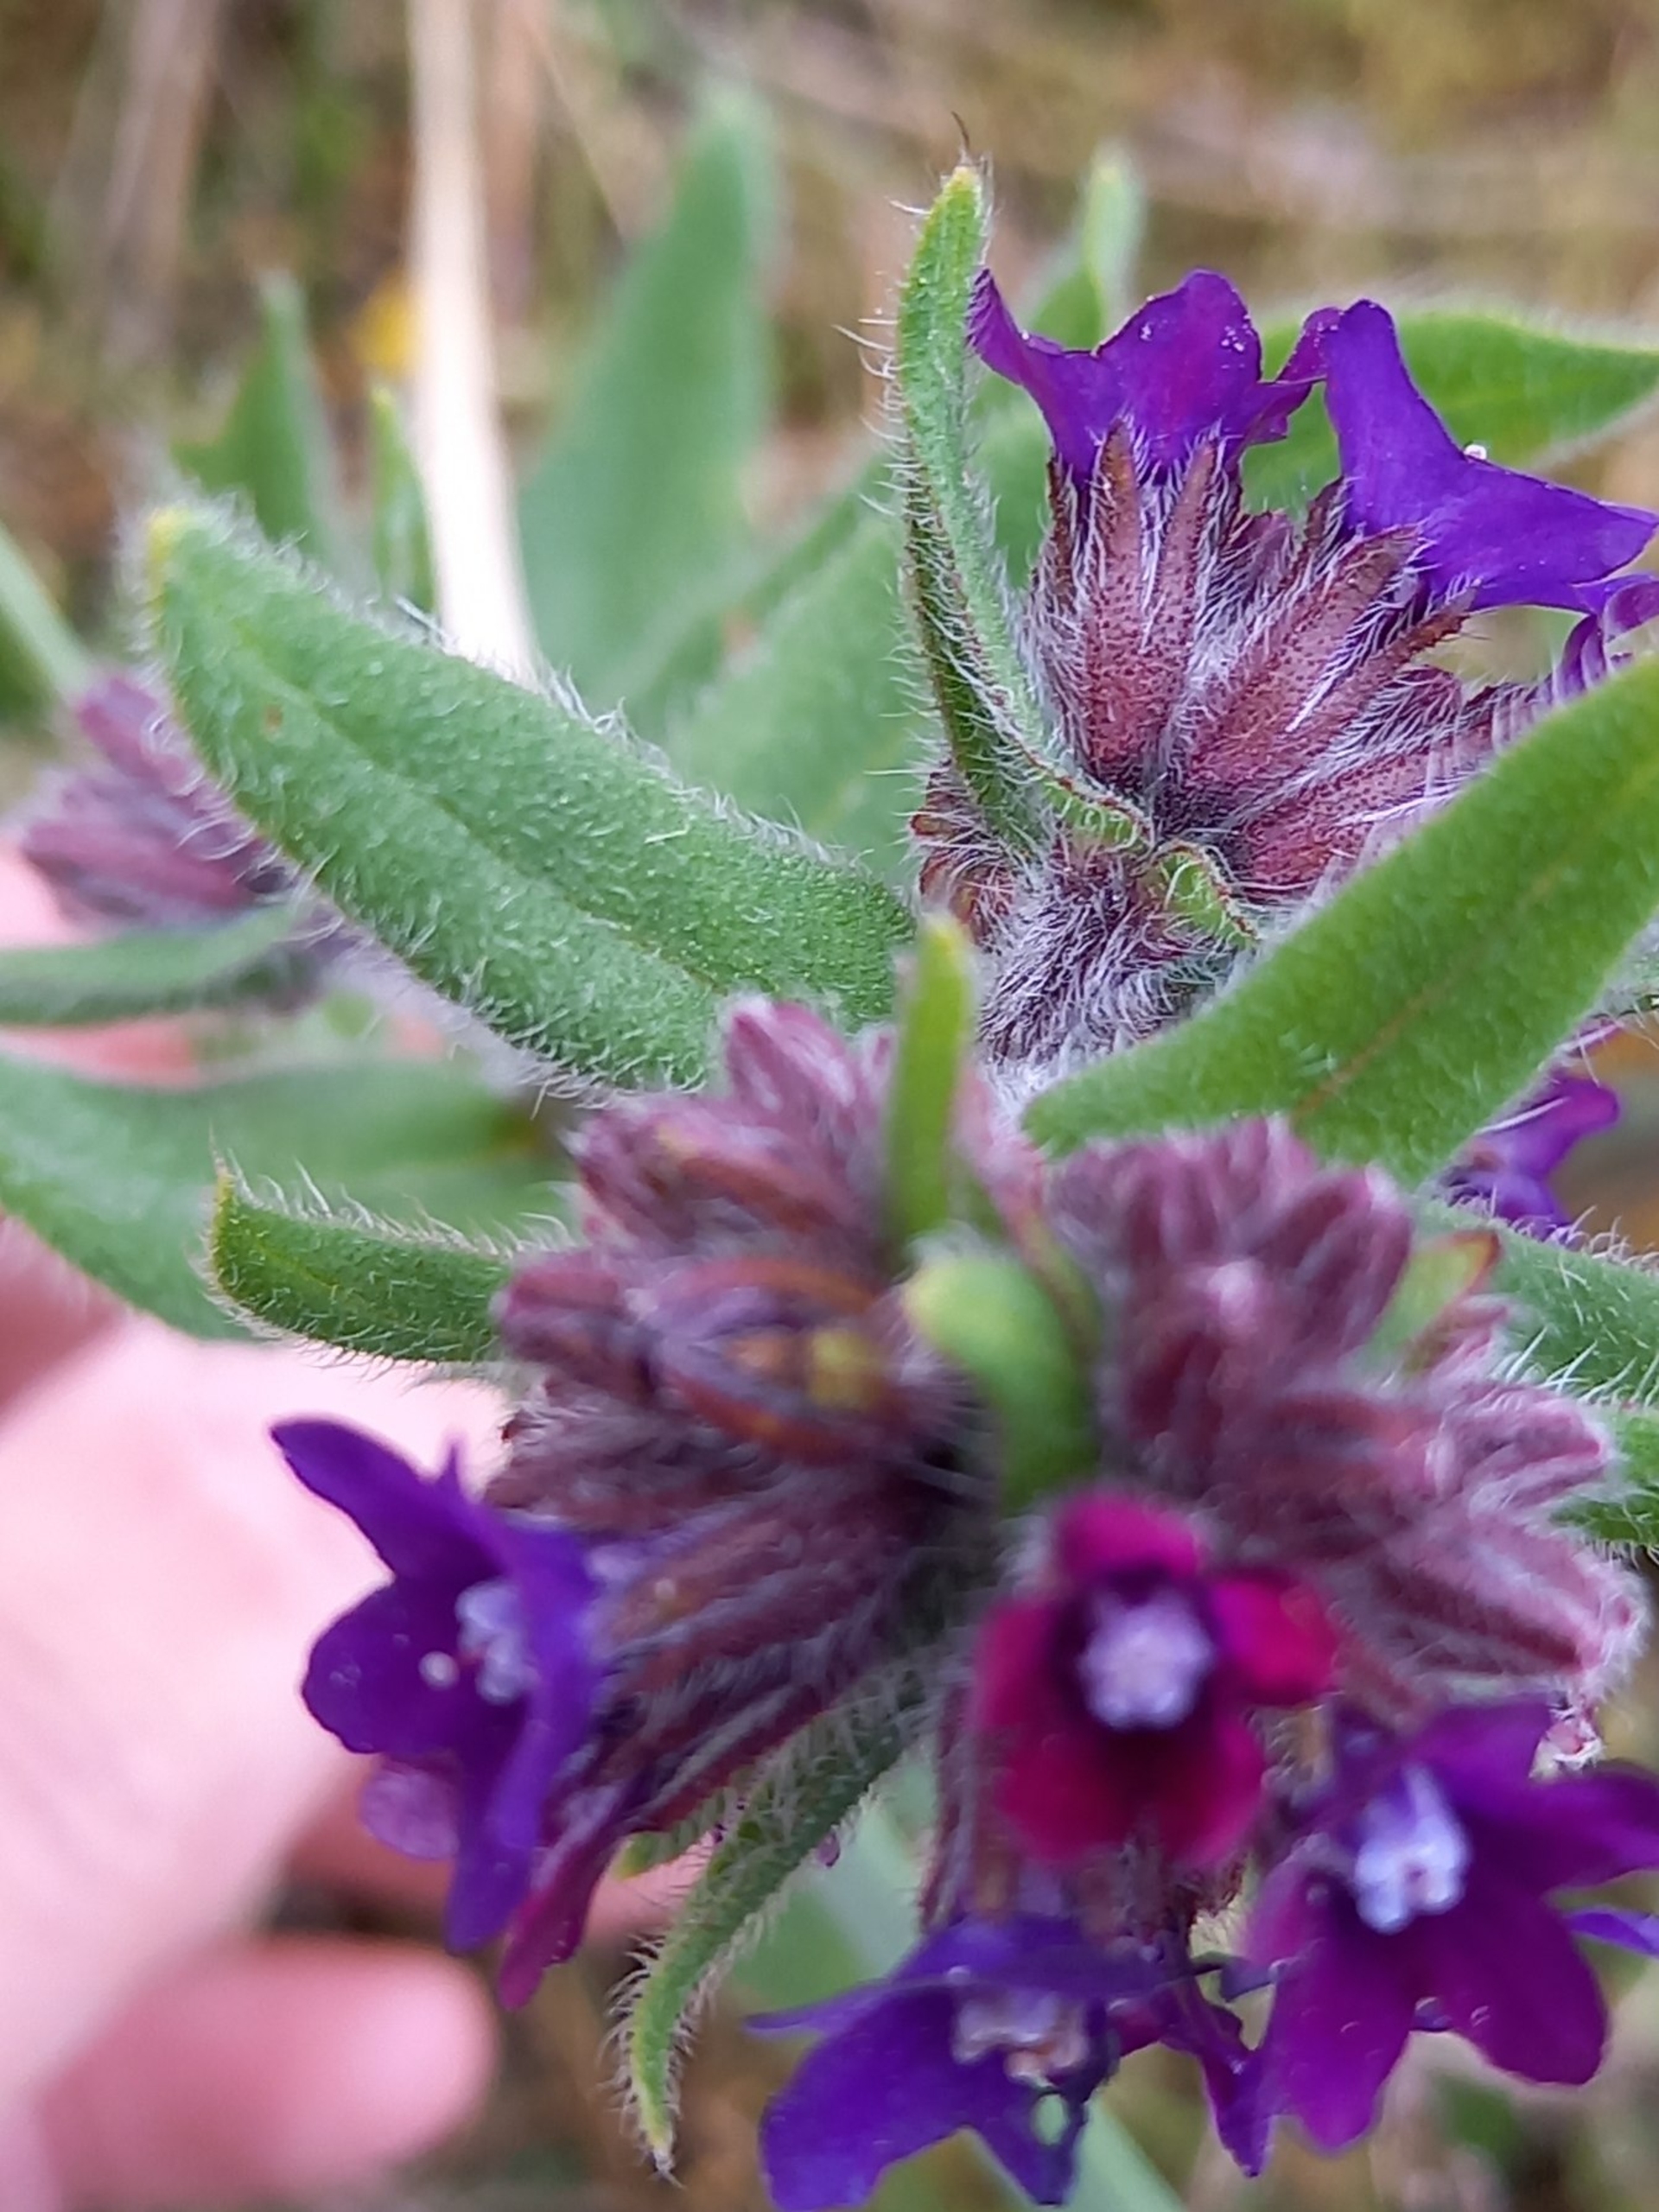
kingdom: Plantae
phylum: Tracheophyta
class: Magnoliopsida
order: Boraginales
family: Boraginaceae
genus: Anchusa
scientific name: Anchusa officinalis
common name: Læge-oksetunge
